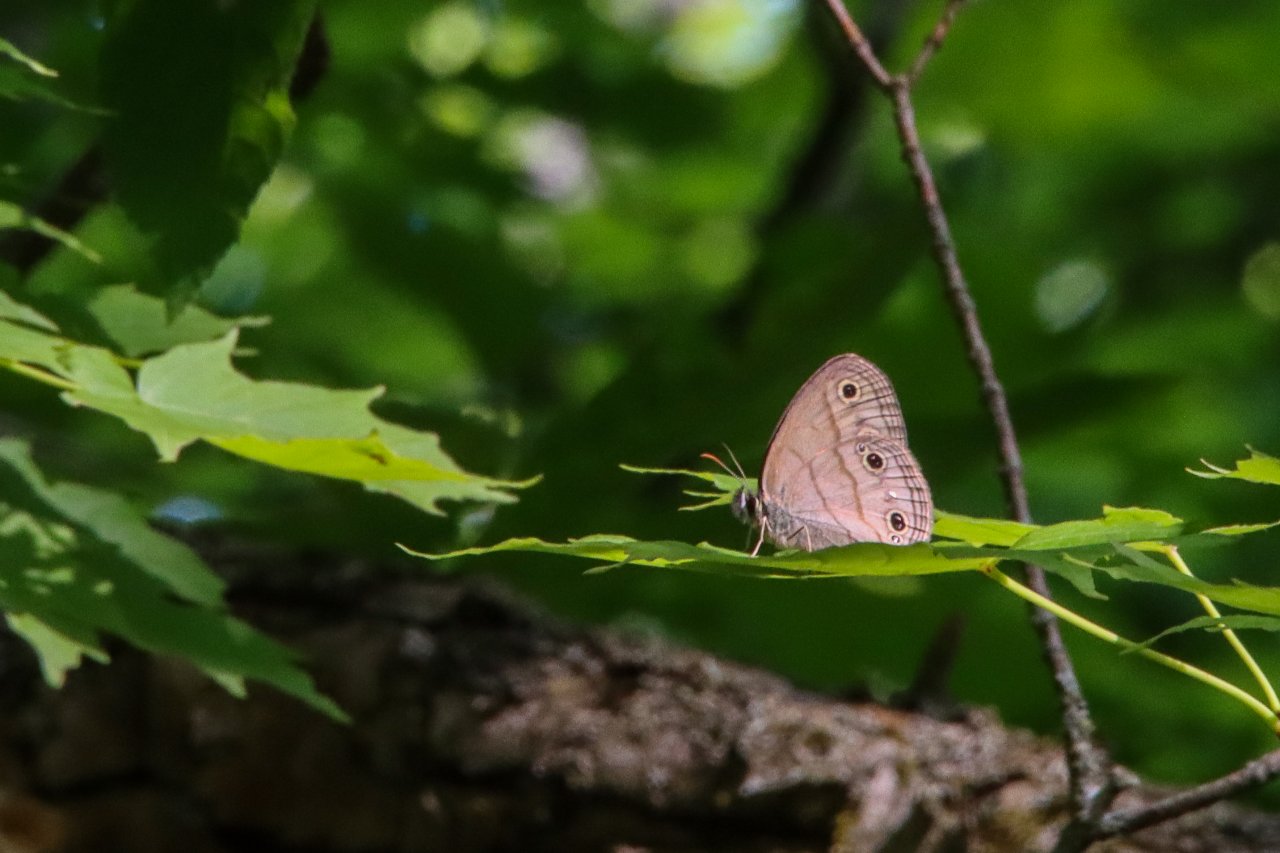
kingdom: Animalia
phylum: Arthropoda
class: Insecta
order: Lepidoptera
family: Nymphalidae
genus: Euptychia
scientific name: Euptychia cymela
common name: Little Wood Satyr
